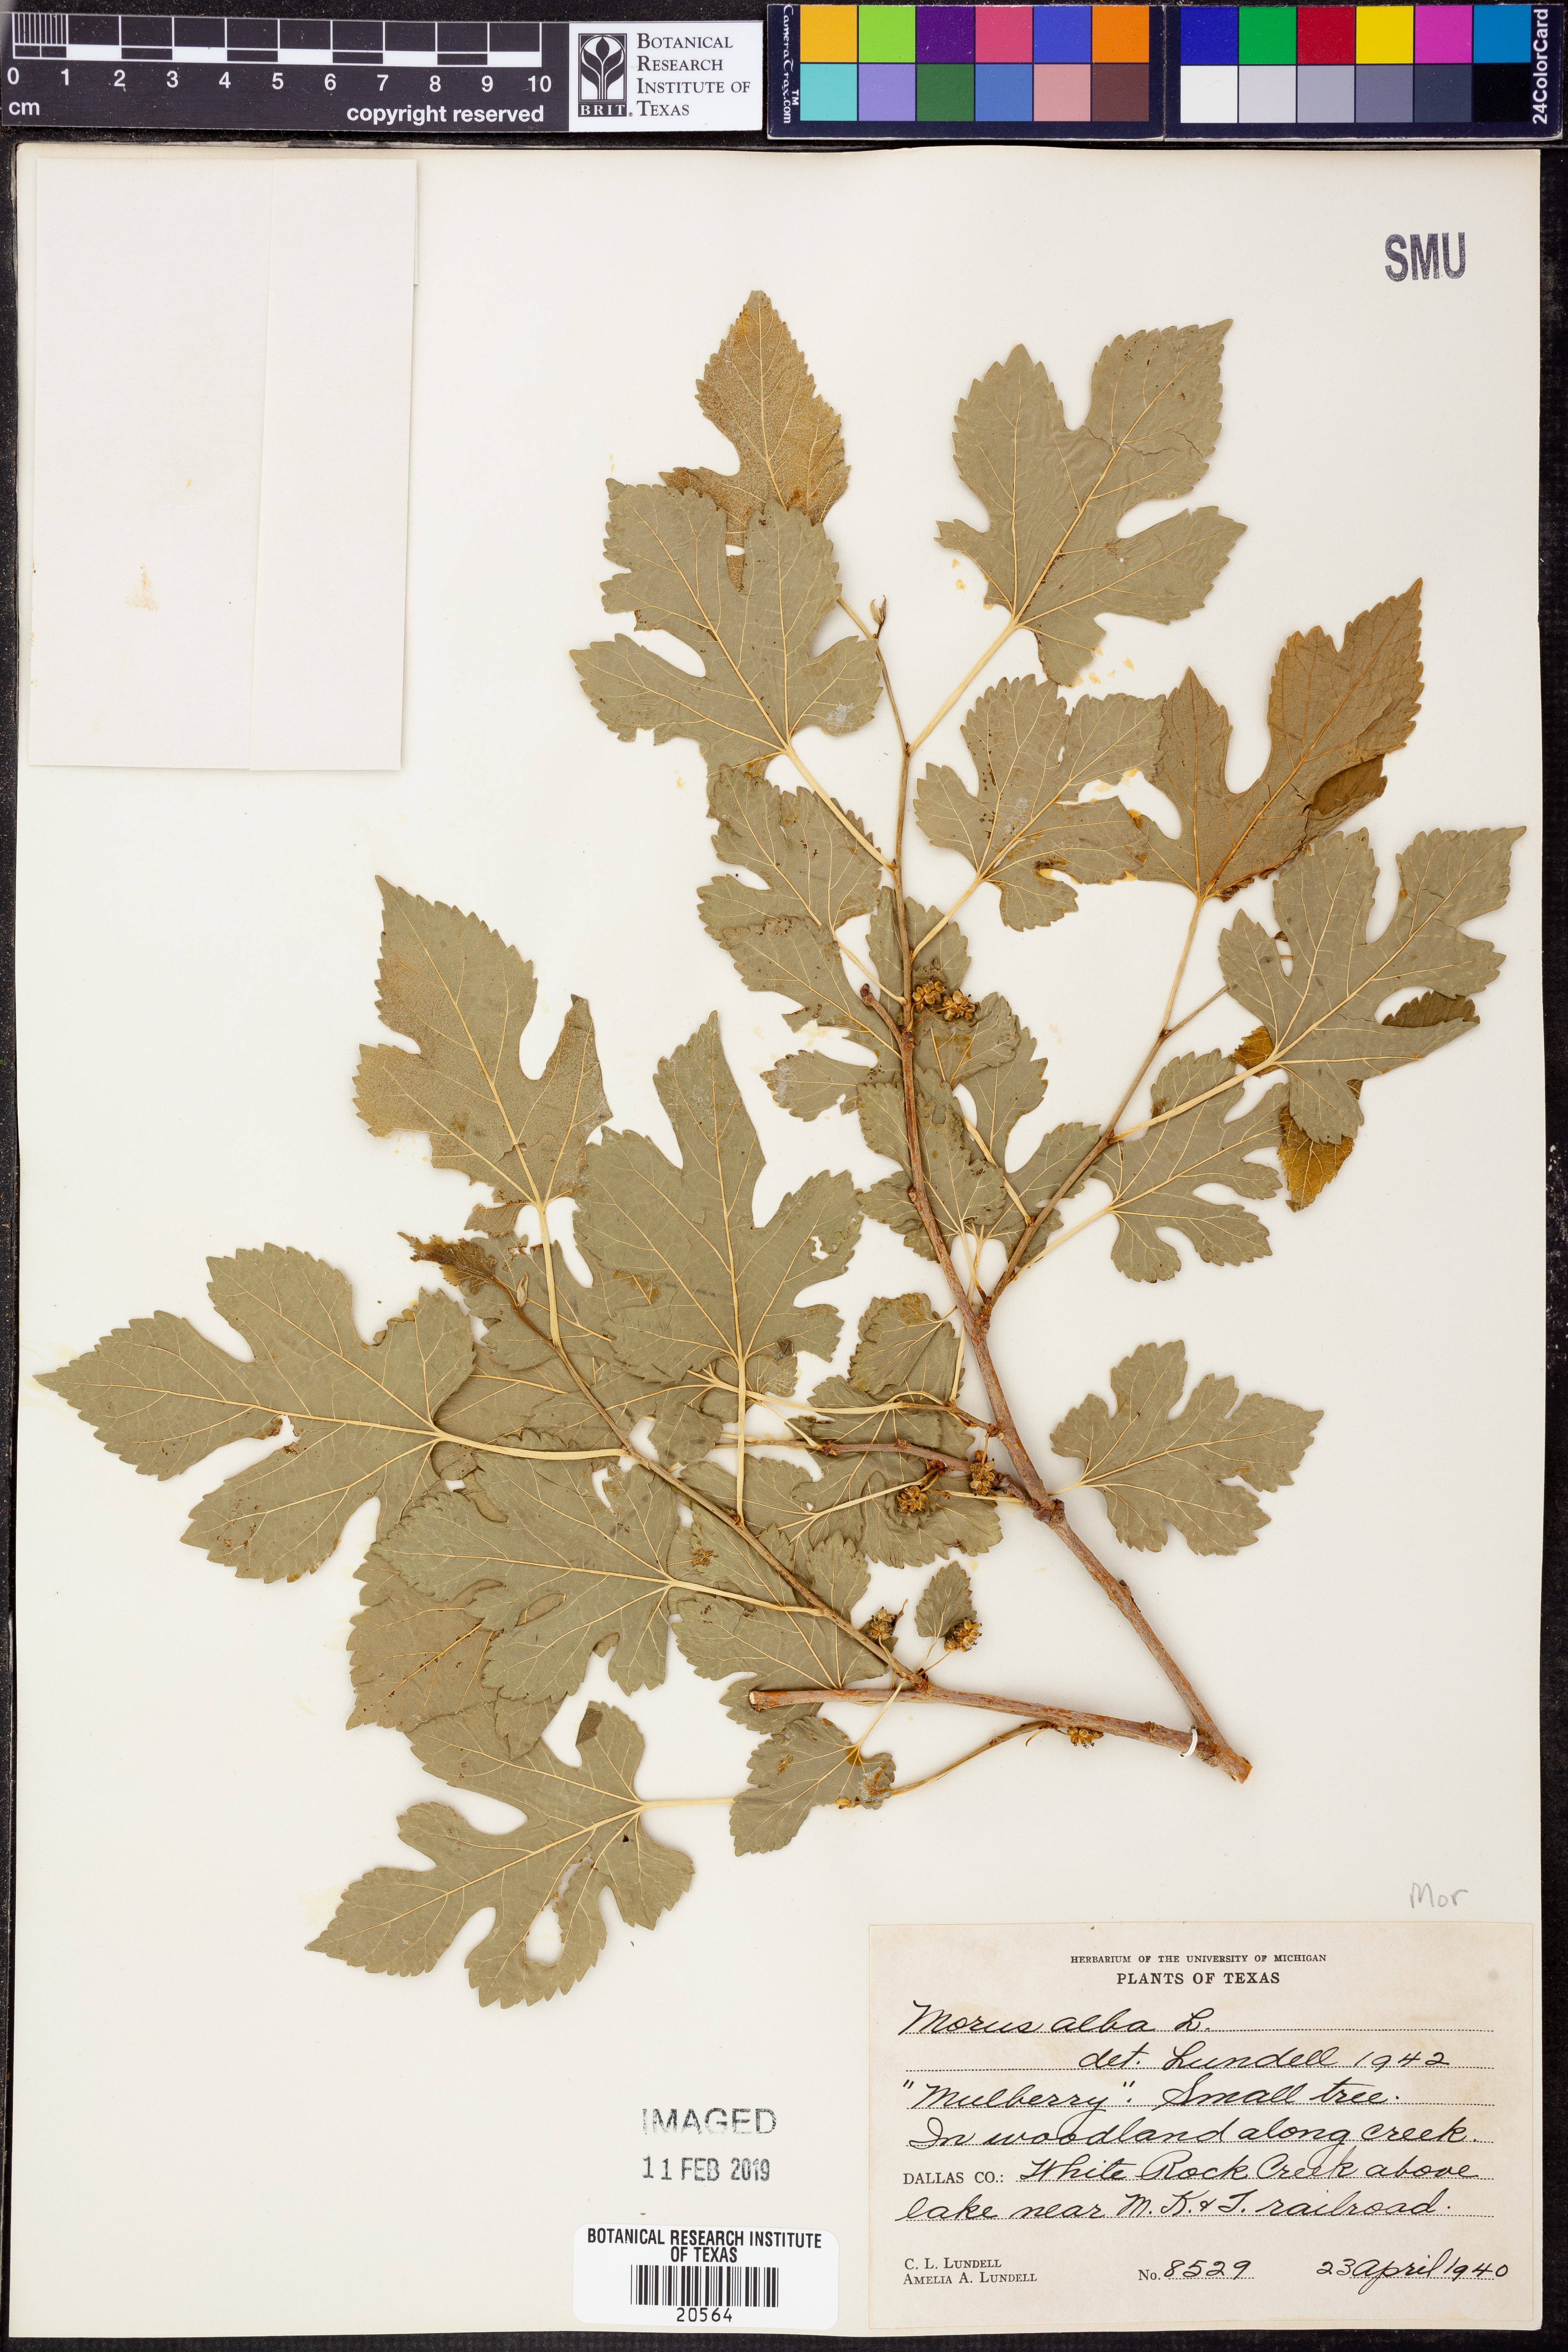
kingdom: Plantae
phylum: Tracheophyta
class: Magnoliopsida
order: Rosales
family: Moraceae
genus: Morus
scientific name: Morus alba
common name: White mulberry
